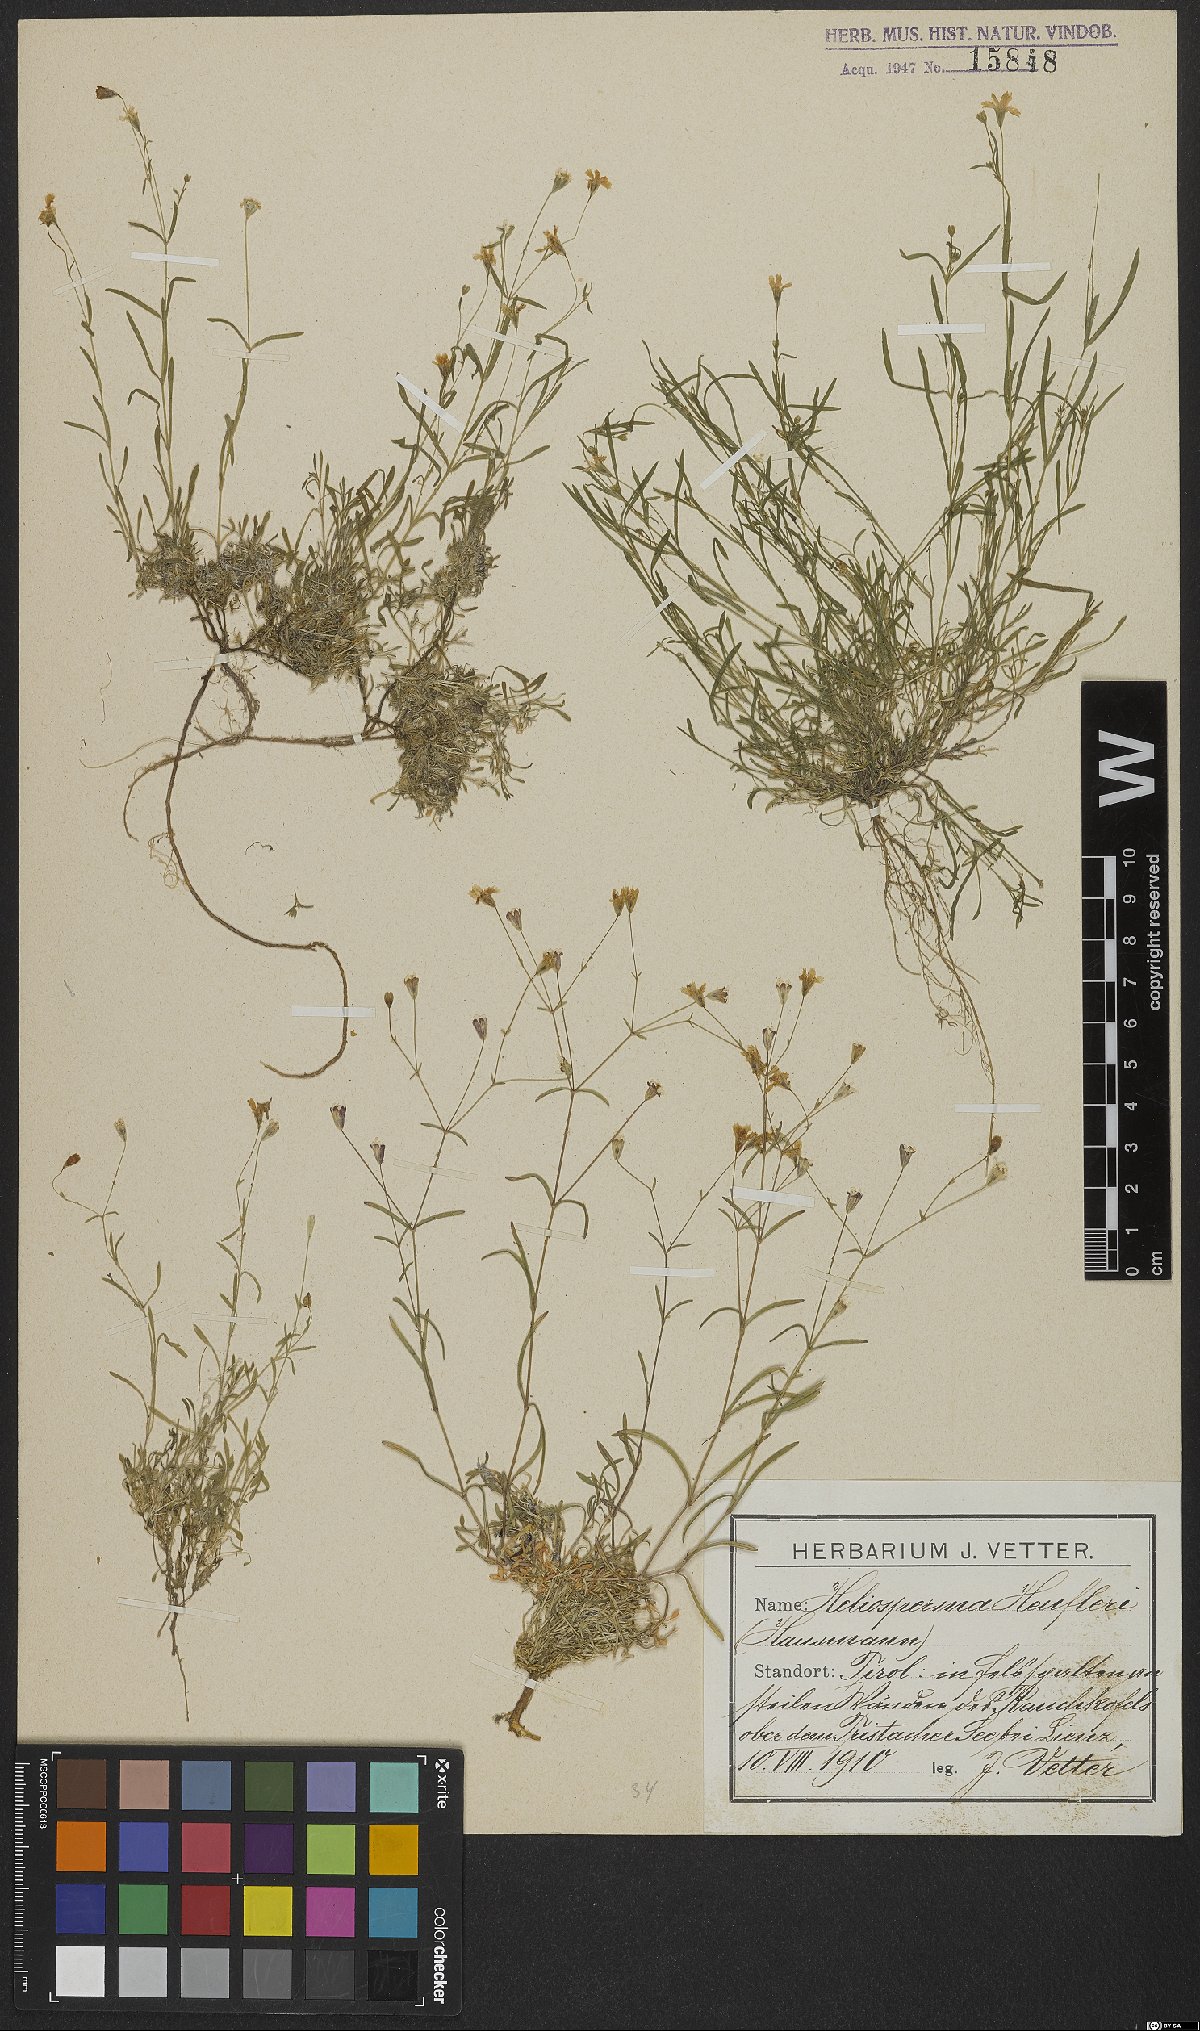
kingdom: Plantae
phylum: Tracheophyta
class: Magnoliopsida
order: Caryophyllales
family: Caryophyllaceae
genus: Heliosperma
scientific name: Heliosperma veselskyi
